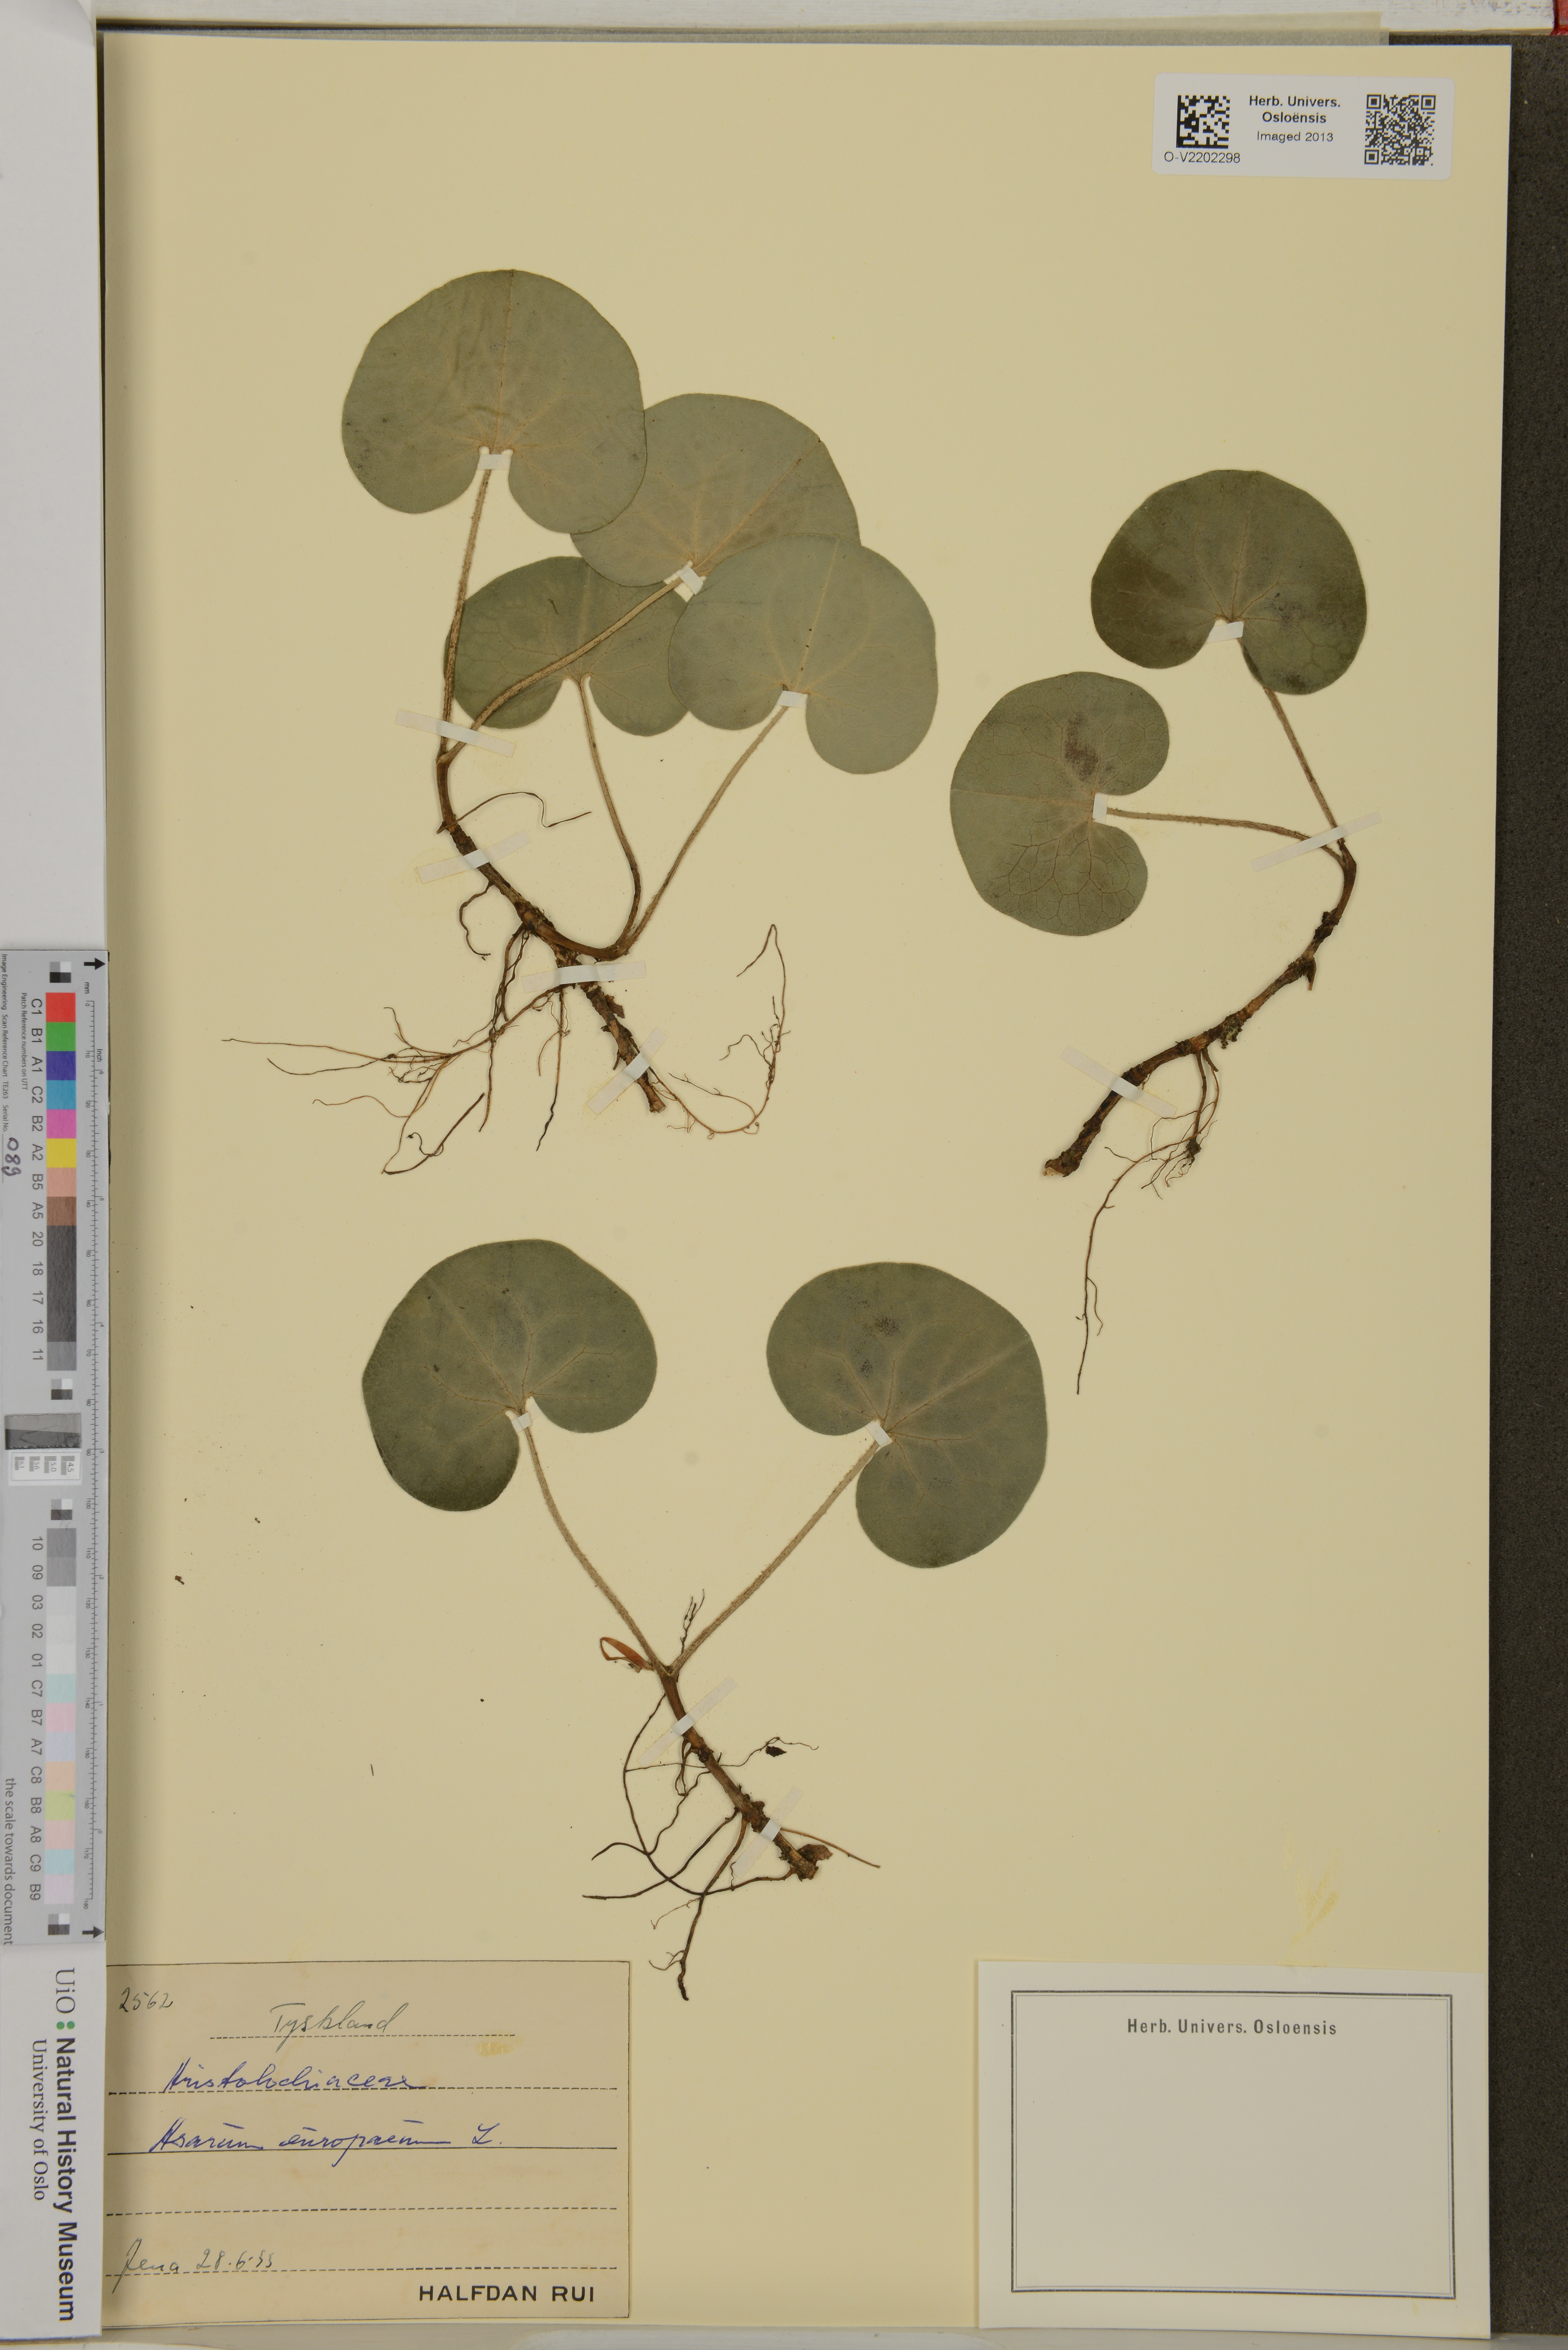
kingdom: Plantae
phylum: Tracheophyta
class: Magnoliopsida
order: Piperales
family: Aristolochiaceae
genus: Asarum
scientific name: Asarum europaeum
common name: Asarabacca
